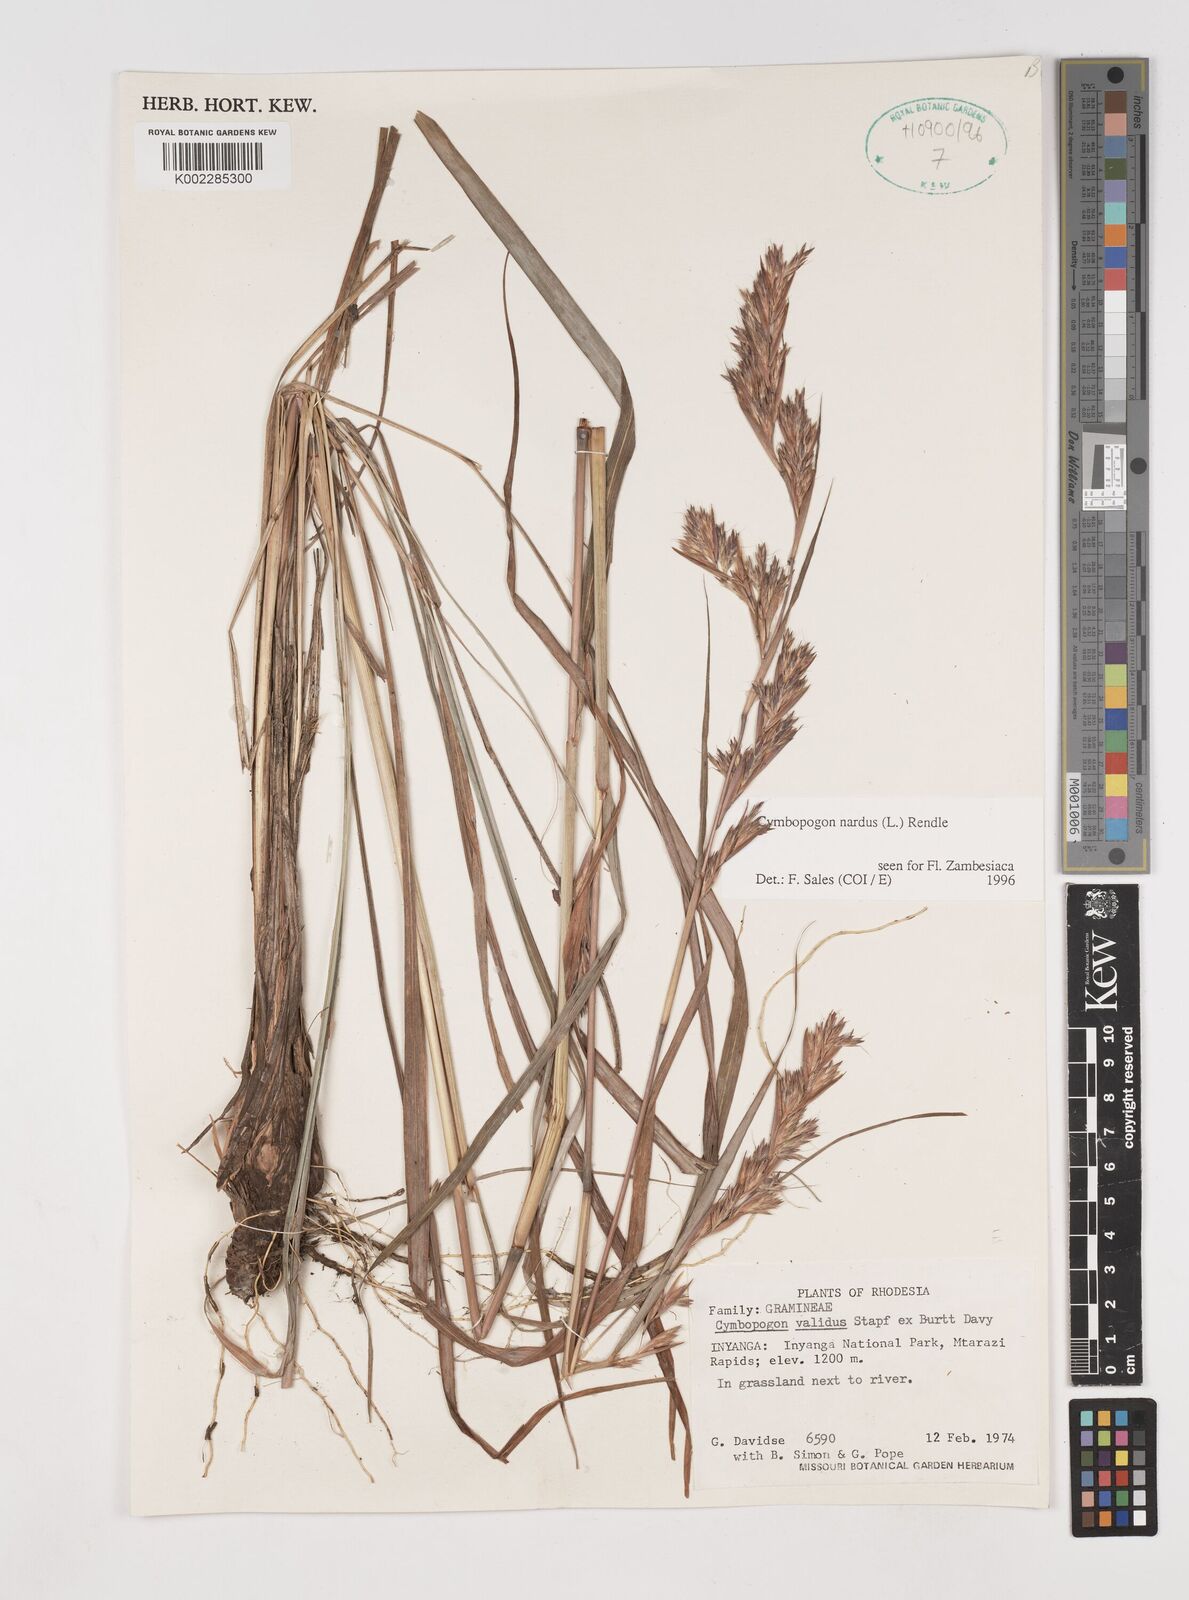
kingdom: Plantae
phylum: Tracheophyta
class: Liliopsida
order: Poales
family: Poaceae
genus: Cymbopogon
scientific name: Cymbopogon nardus
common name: Giant turpentine grass
